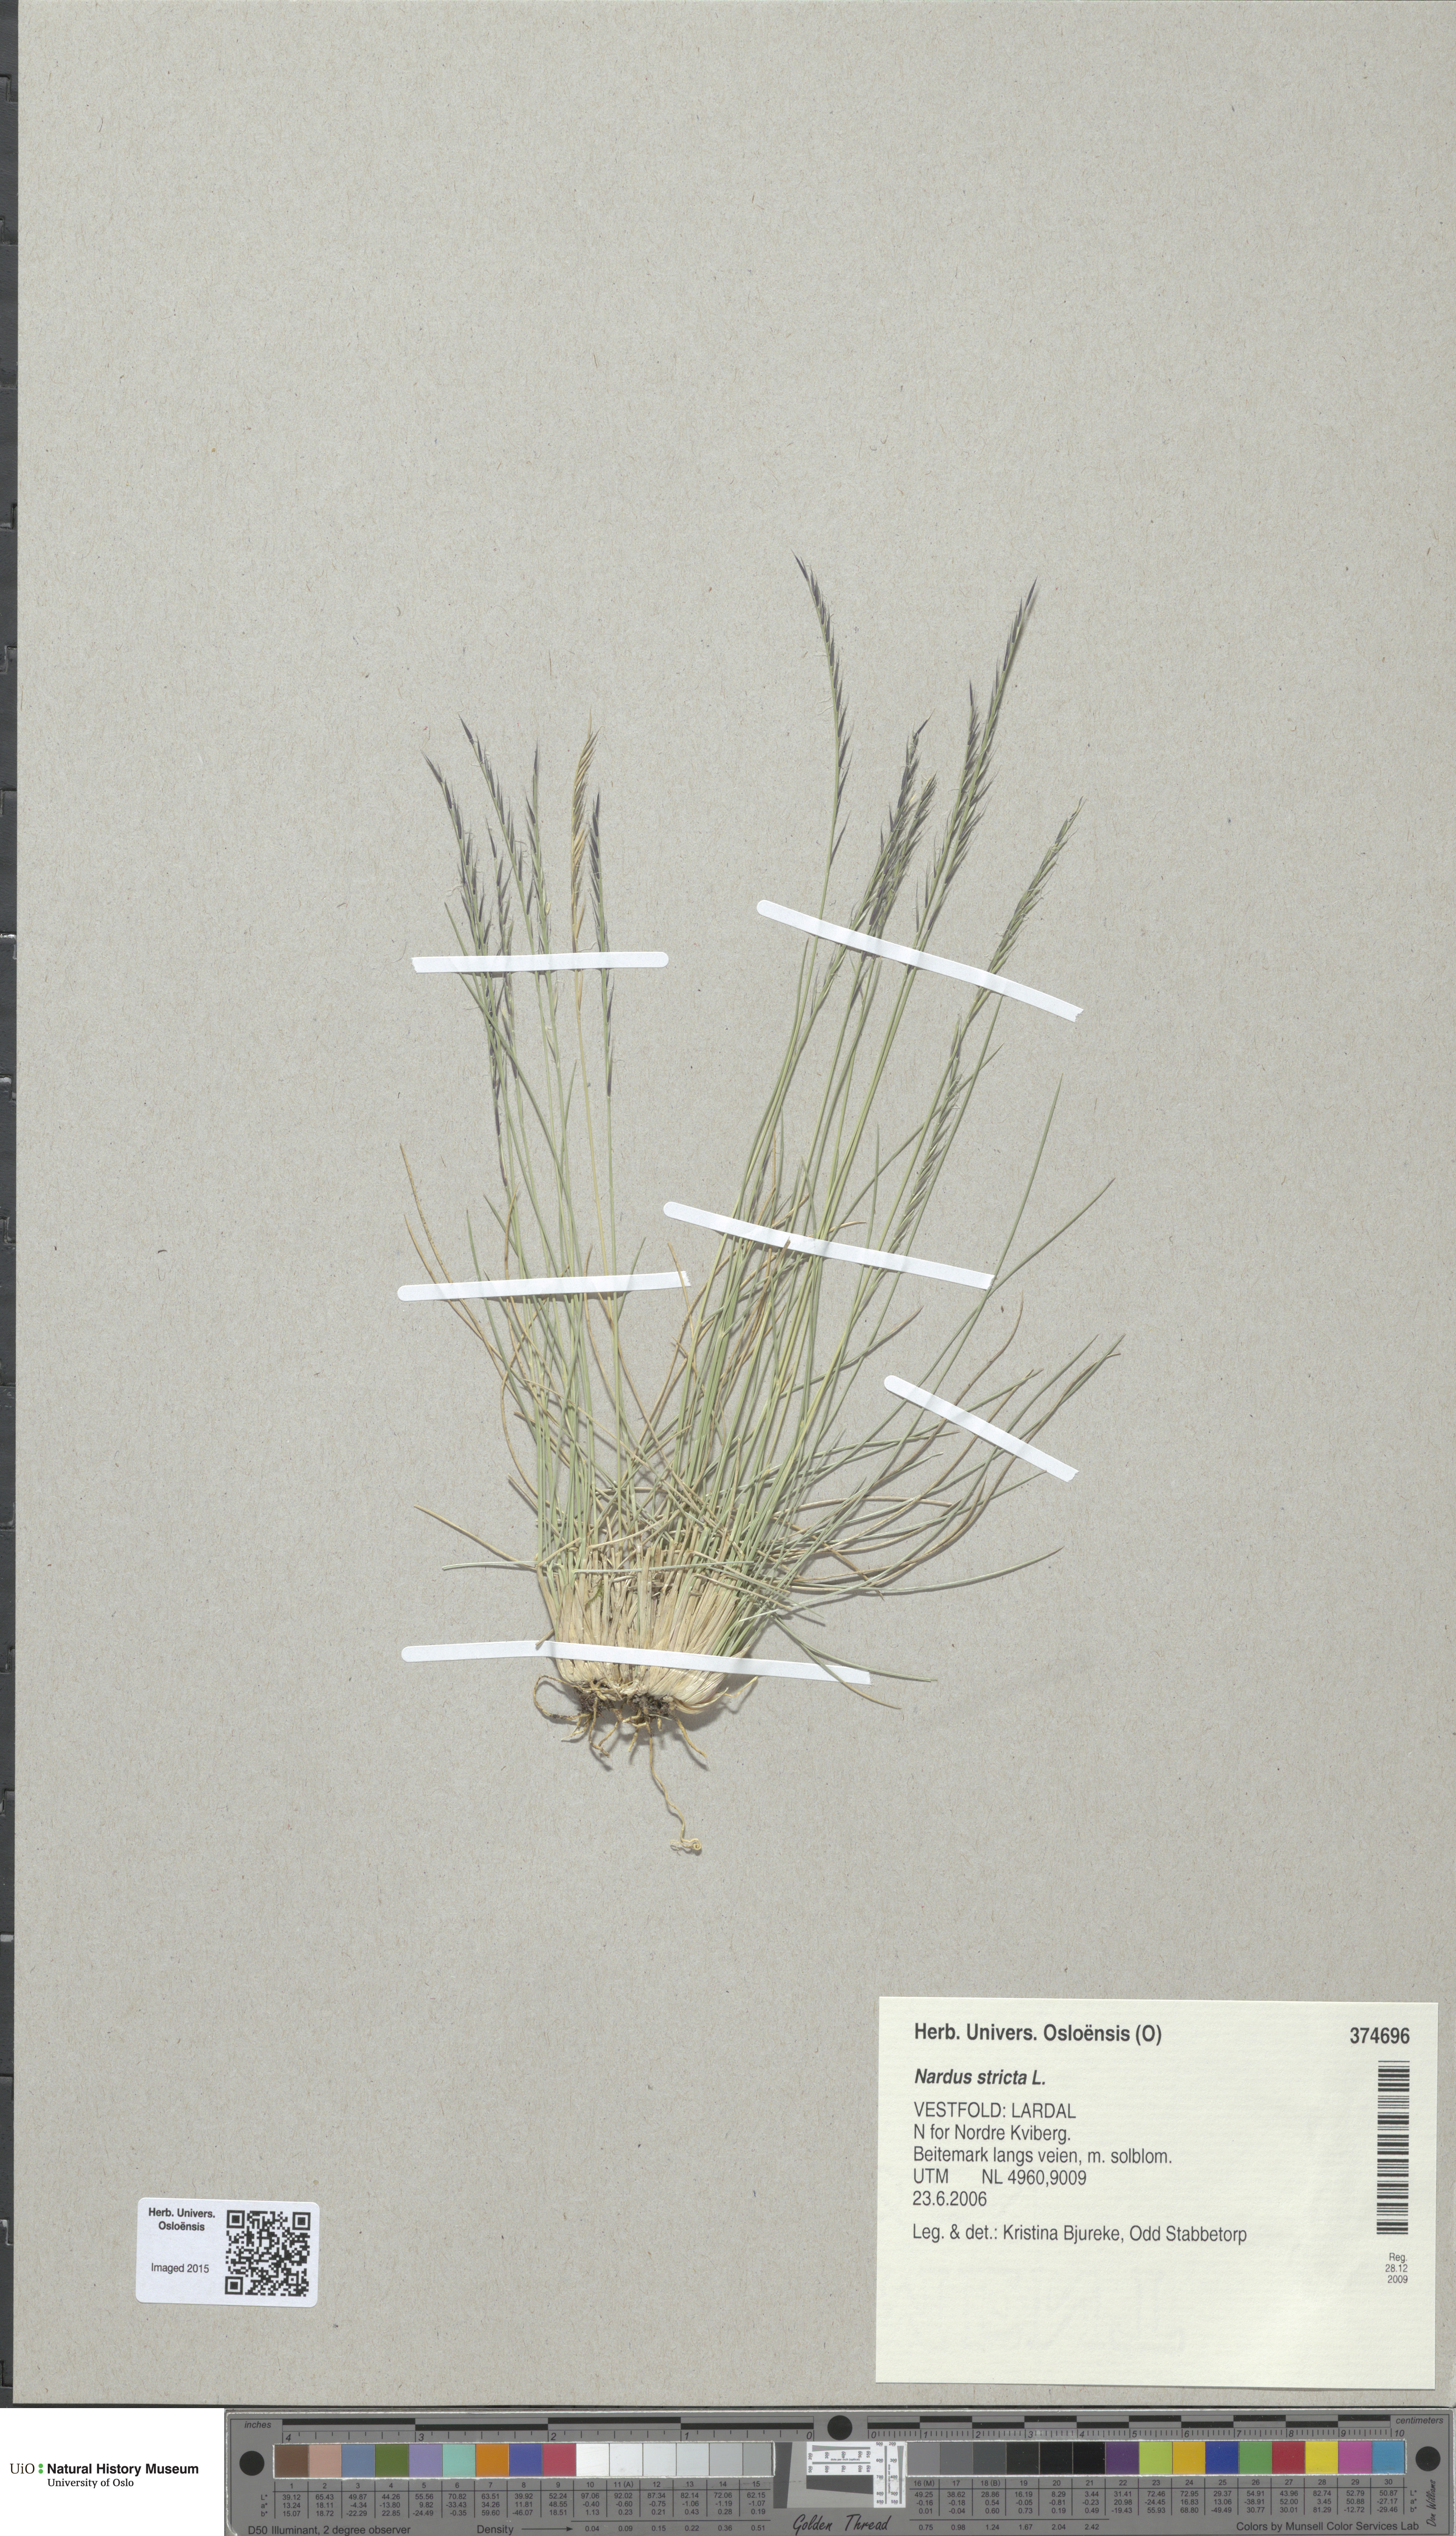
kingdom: Plantae
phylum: Tracheophyta
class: Liliopsida
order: Poales
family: Poaceae
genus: Nardus
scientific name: Nardus stricta
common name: Mat-grass
